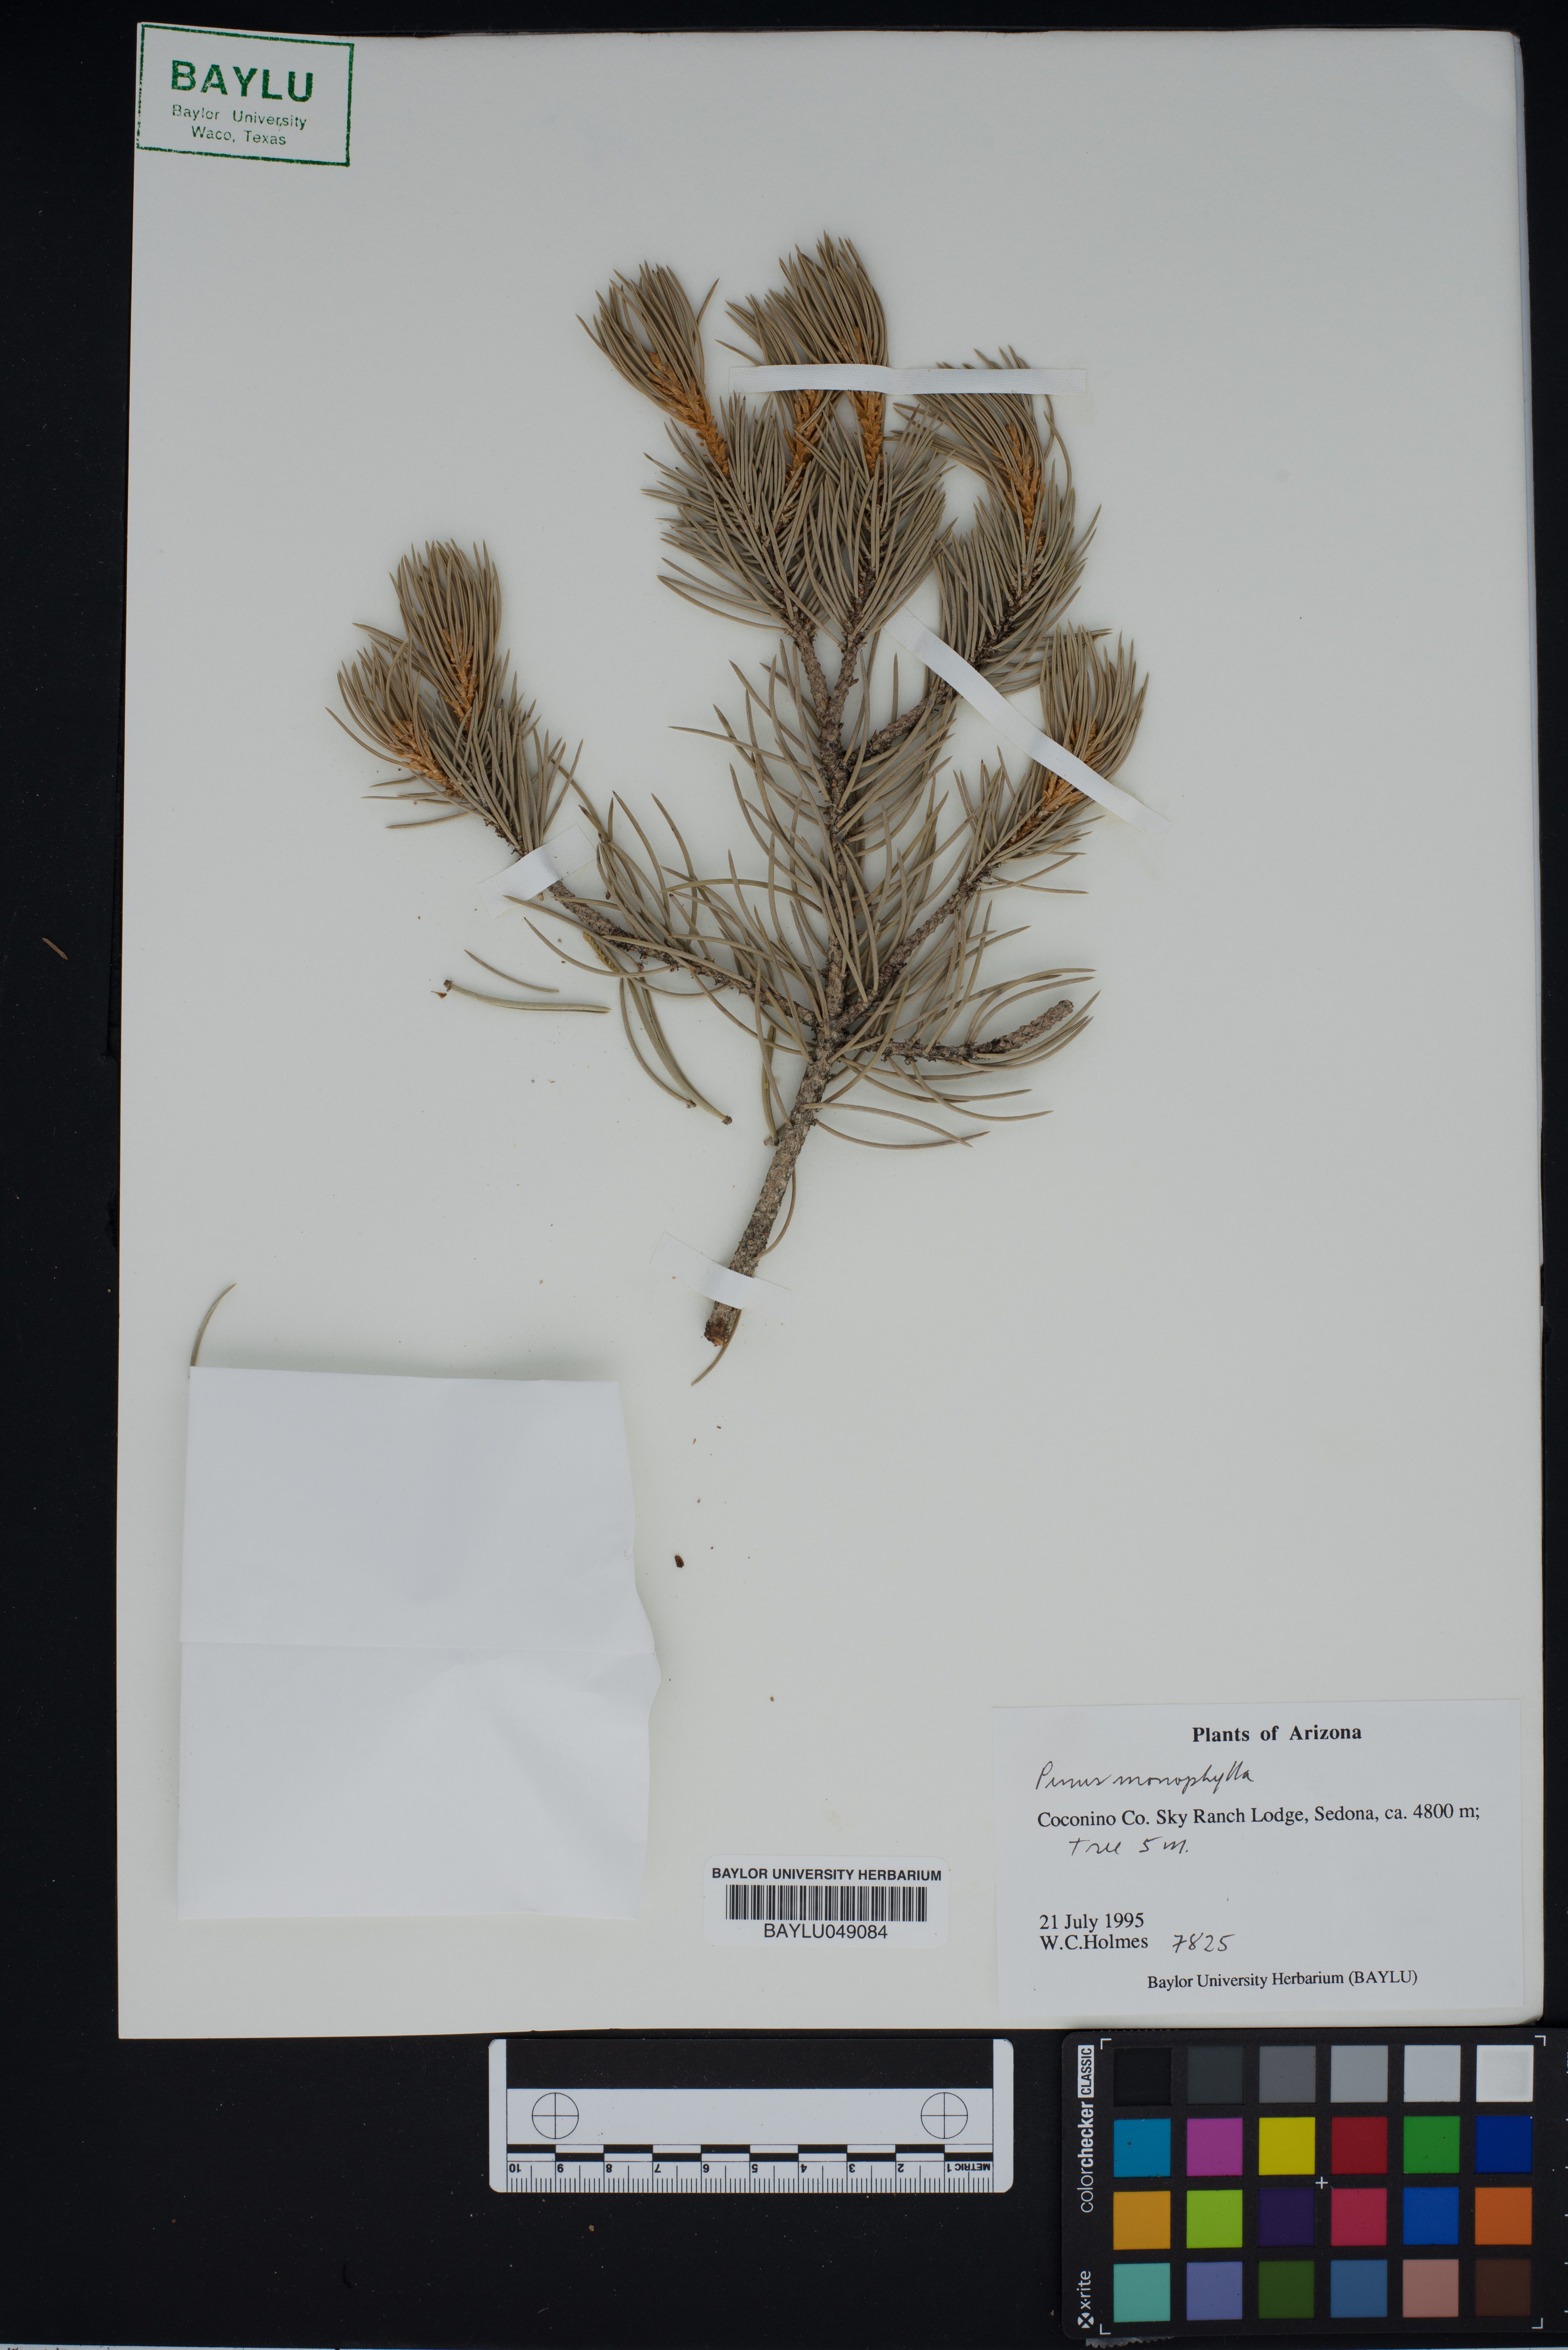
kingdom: Plantae
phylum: Tracheophyta
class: Pinopsida
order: Pinales
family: Pinaceae
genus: Pinus
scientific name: Pinus monophylla
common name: One-leaved nut pine
